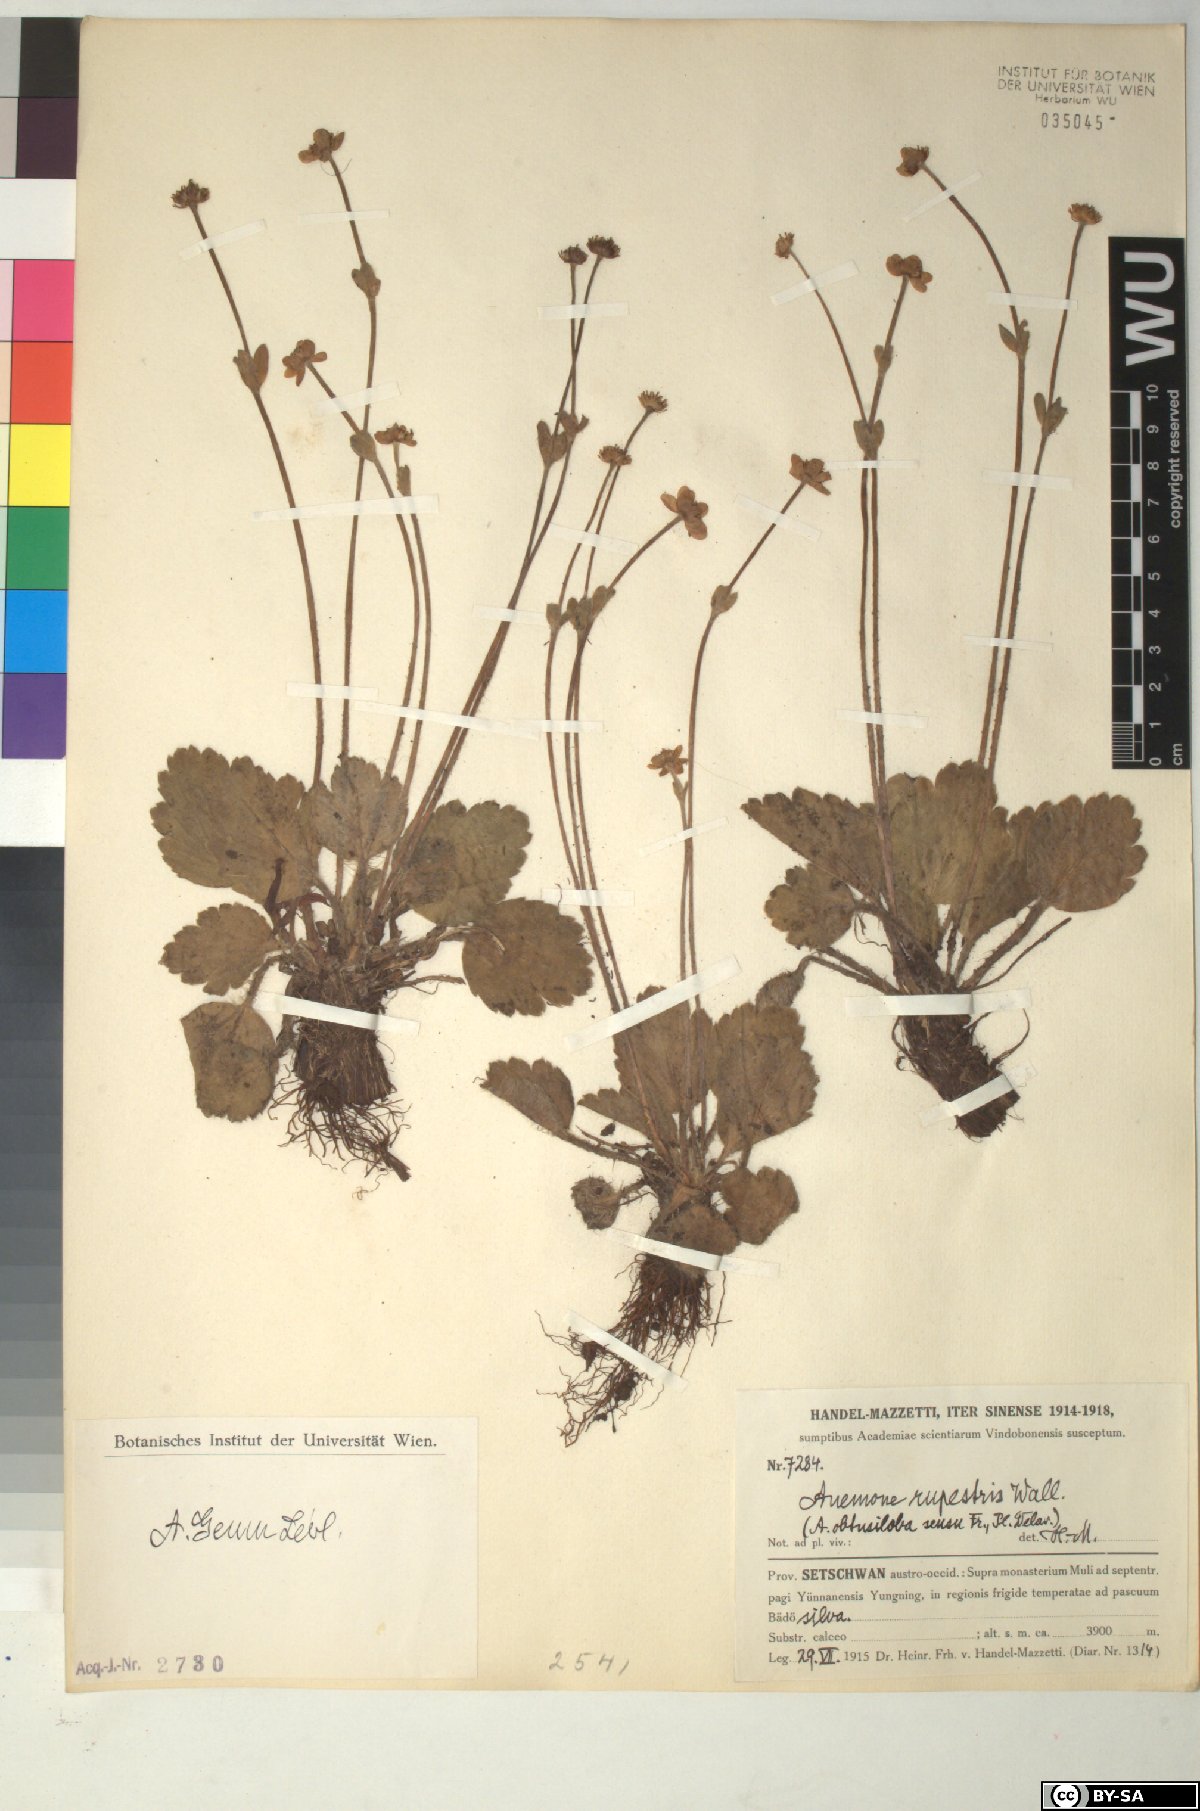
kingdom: Plantae
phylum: Tracheophyta
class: Magnoliopsida
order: Ranunculales
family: Ranunculaceae
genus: Anemonastrum
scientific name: Anemonastrum geum
